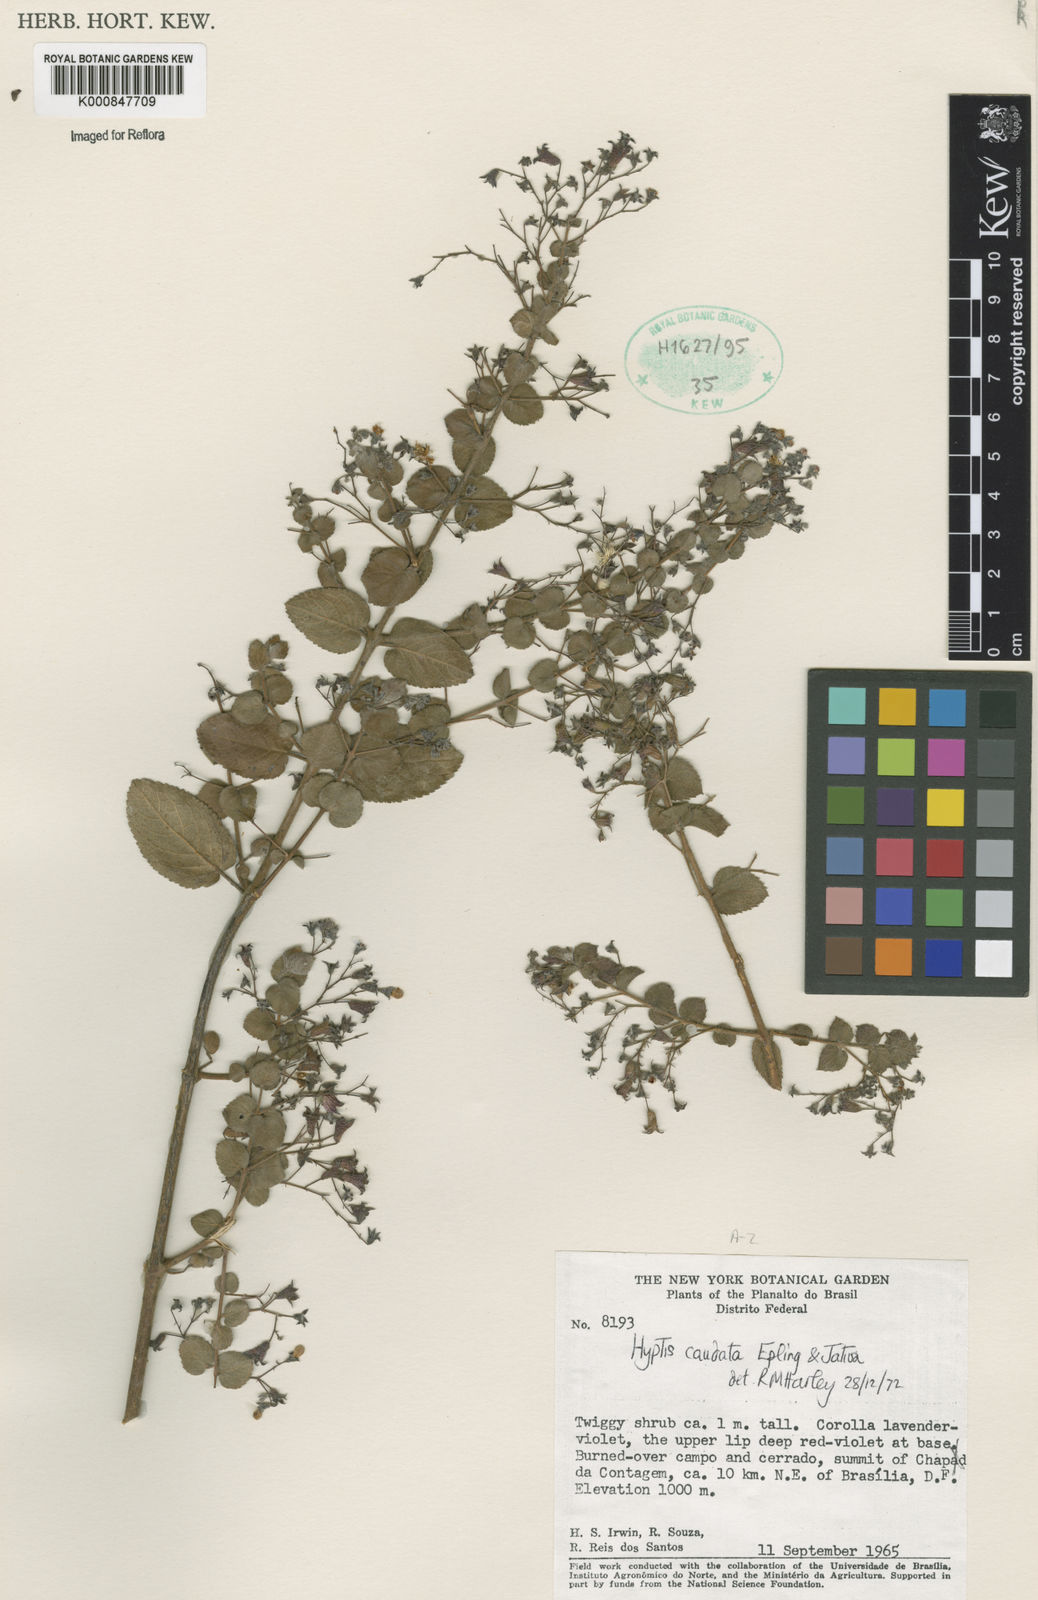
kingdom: Plantae
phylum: Tracheophyta
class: Magnoliopsida
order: Lamiales
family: Lamiaceae
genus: Hyptidendron
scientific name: Hyptidendron
